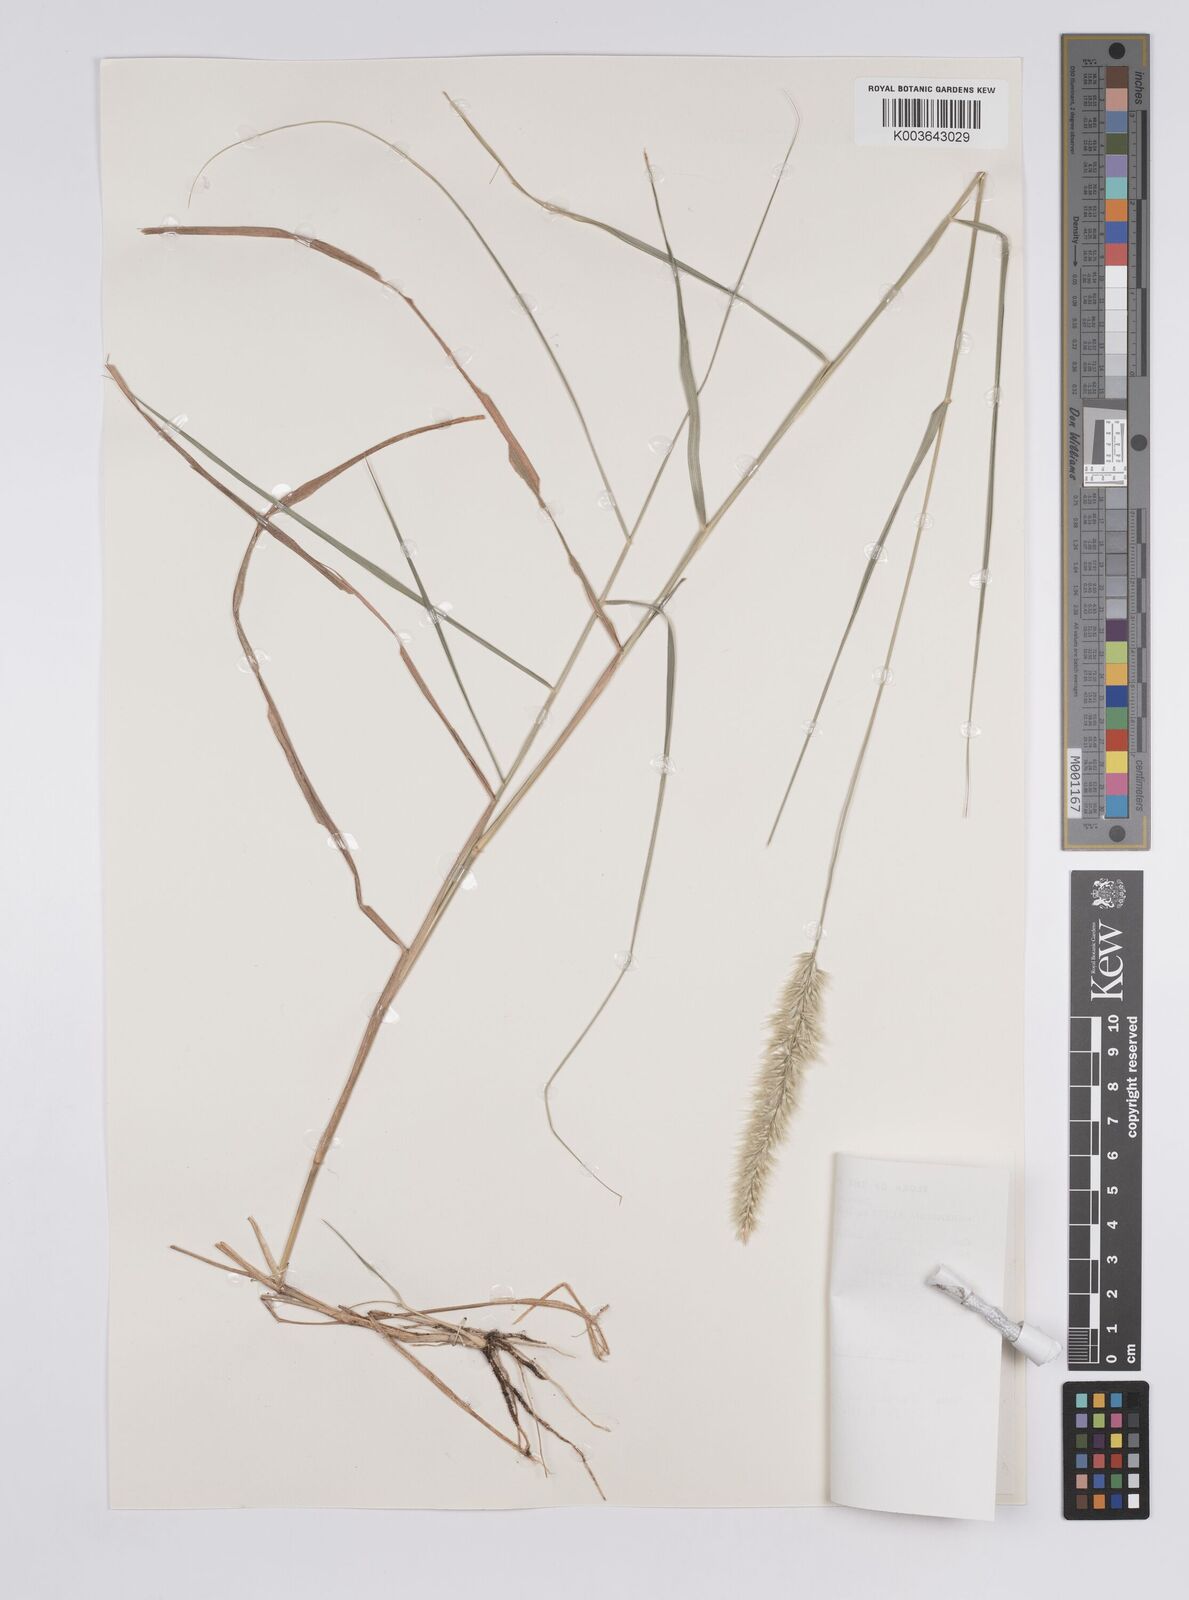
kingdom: Plantae
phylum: Tracheophyta
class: Liliopsida
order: Poales
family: Poaceae
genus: Enneapogon
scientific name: Enneapogon pallidus
